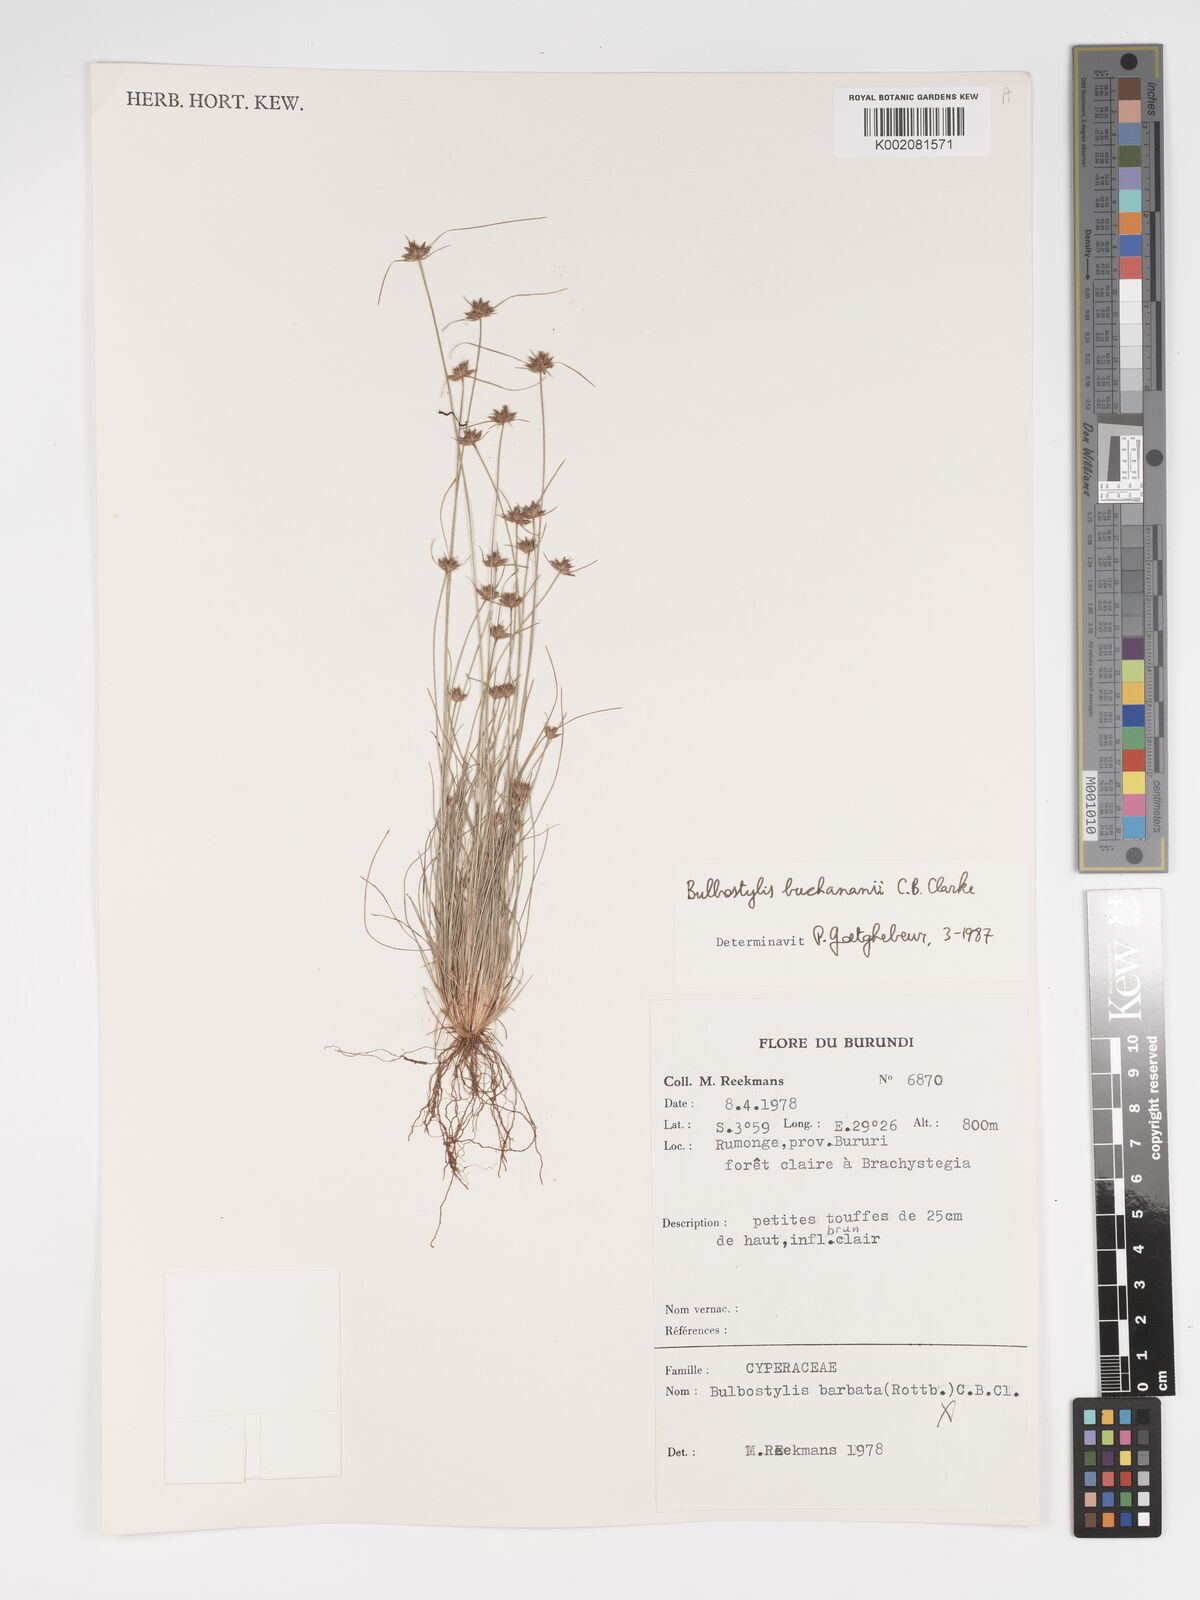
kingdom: Plantae
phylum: Tracheophyta
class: Liliopsida
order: Poales
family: Cyperaceae
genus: Bulbostylis
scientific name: Bulbostylis buchananii
